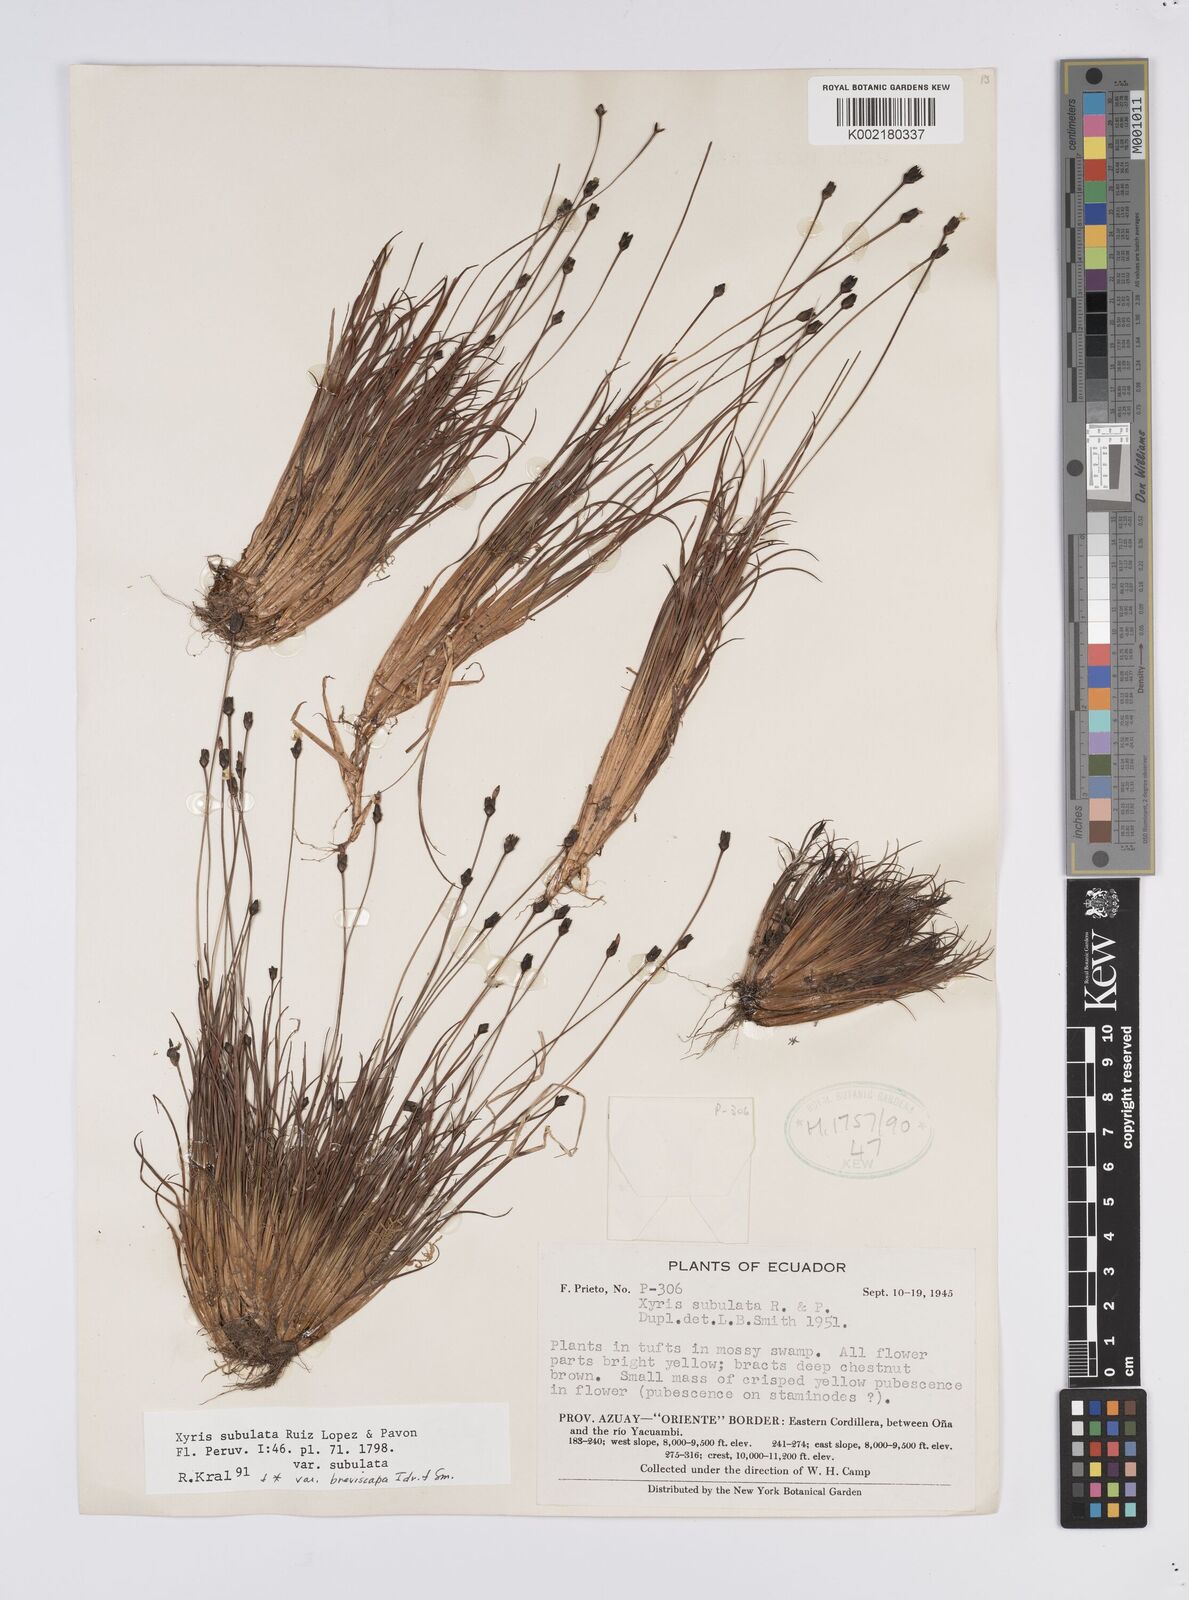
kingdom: Plantae
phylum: Tracheophyta
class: Liliopsida
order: Poales
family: Xyridaceae
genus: Xyris
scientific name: Xyris subulata
